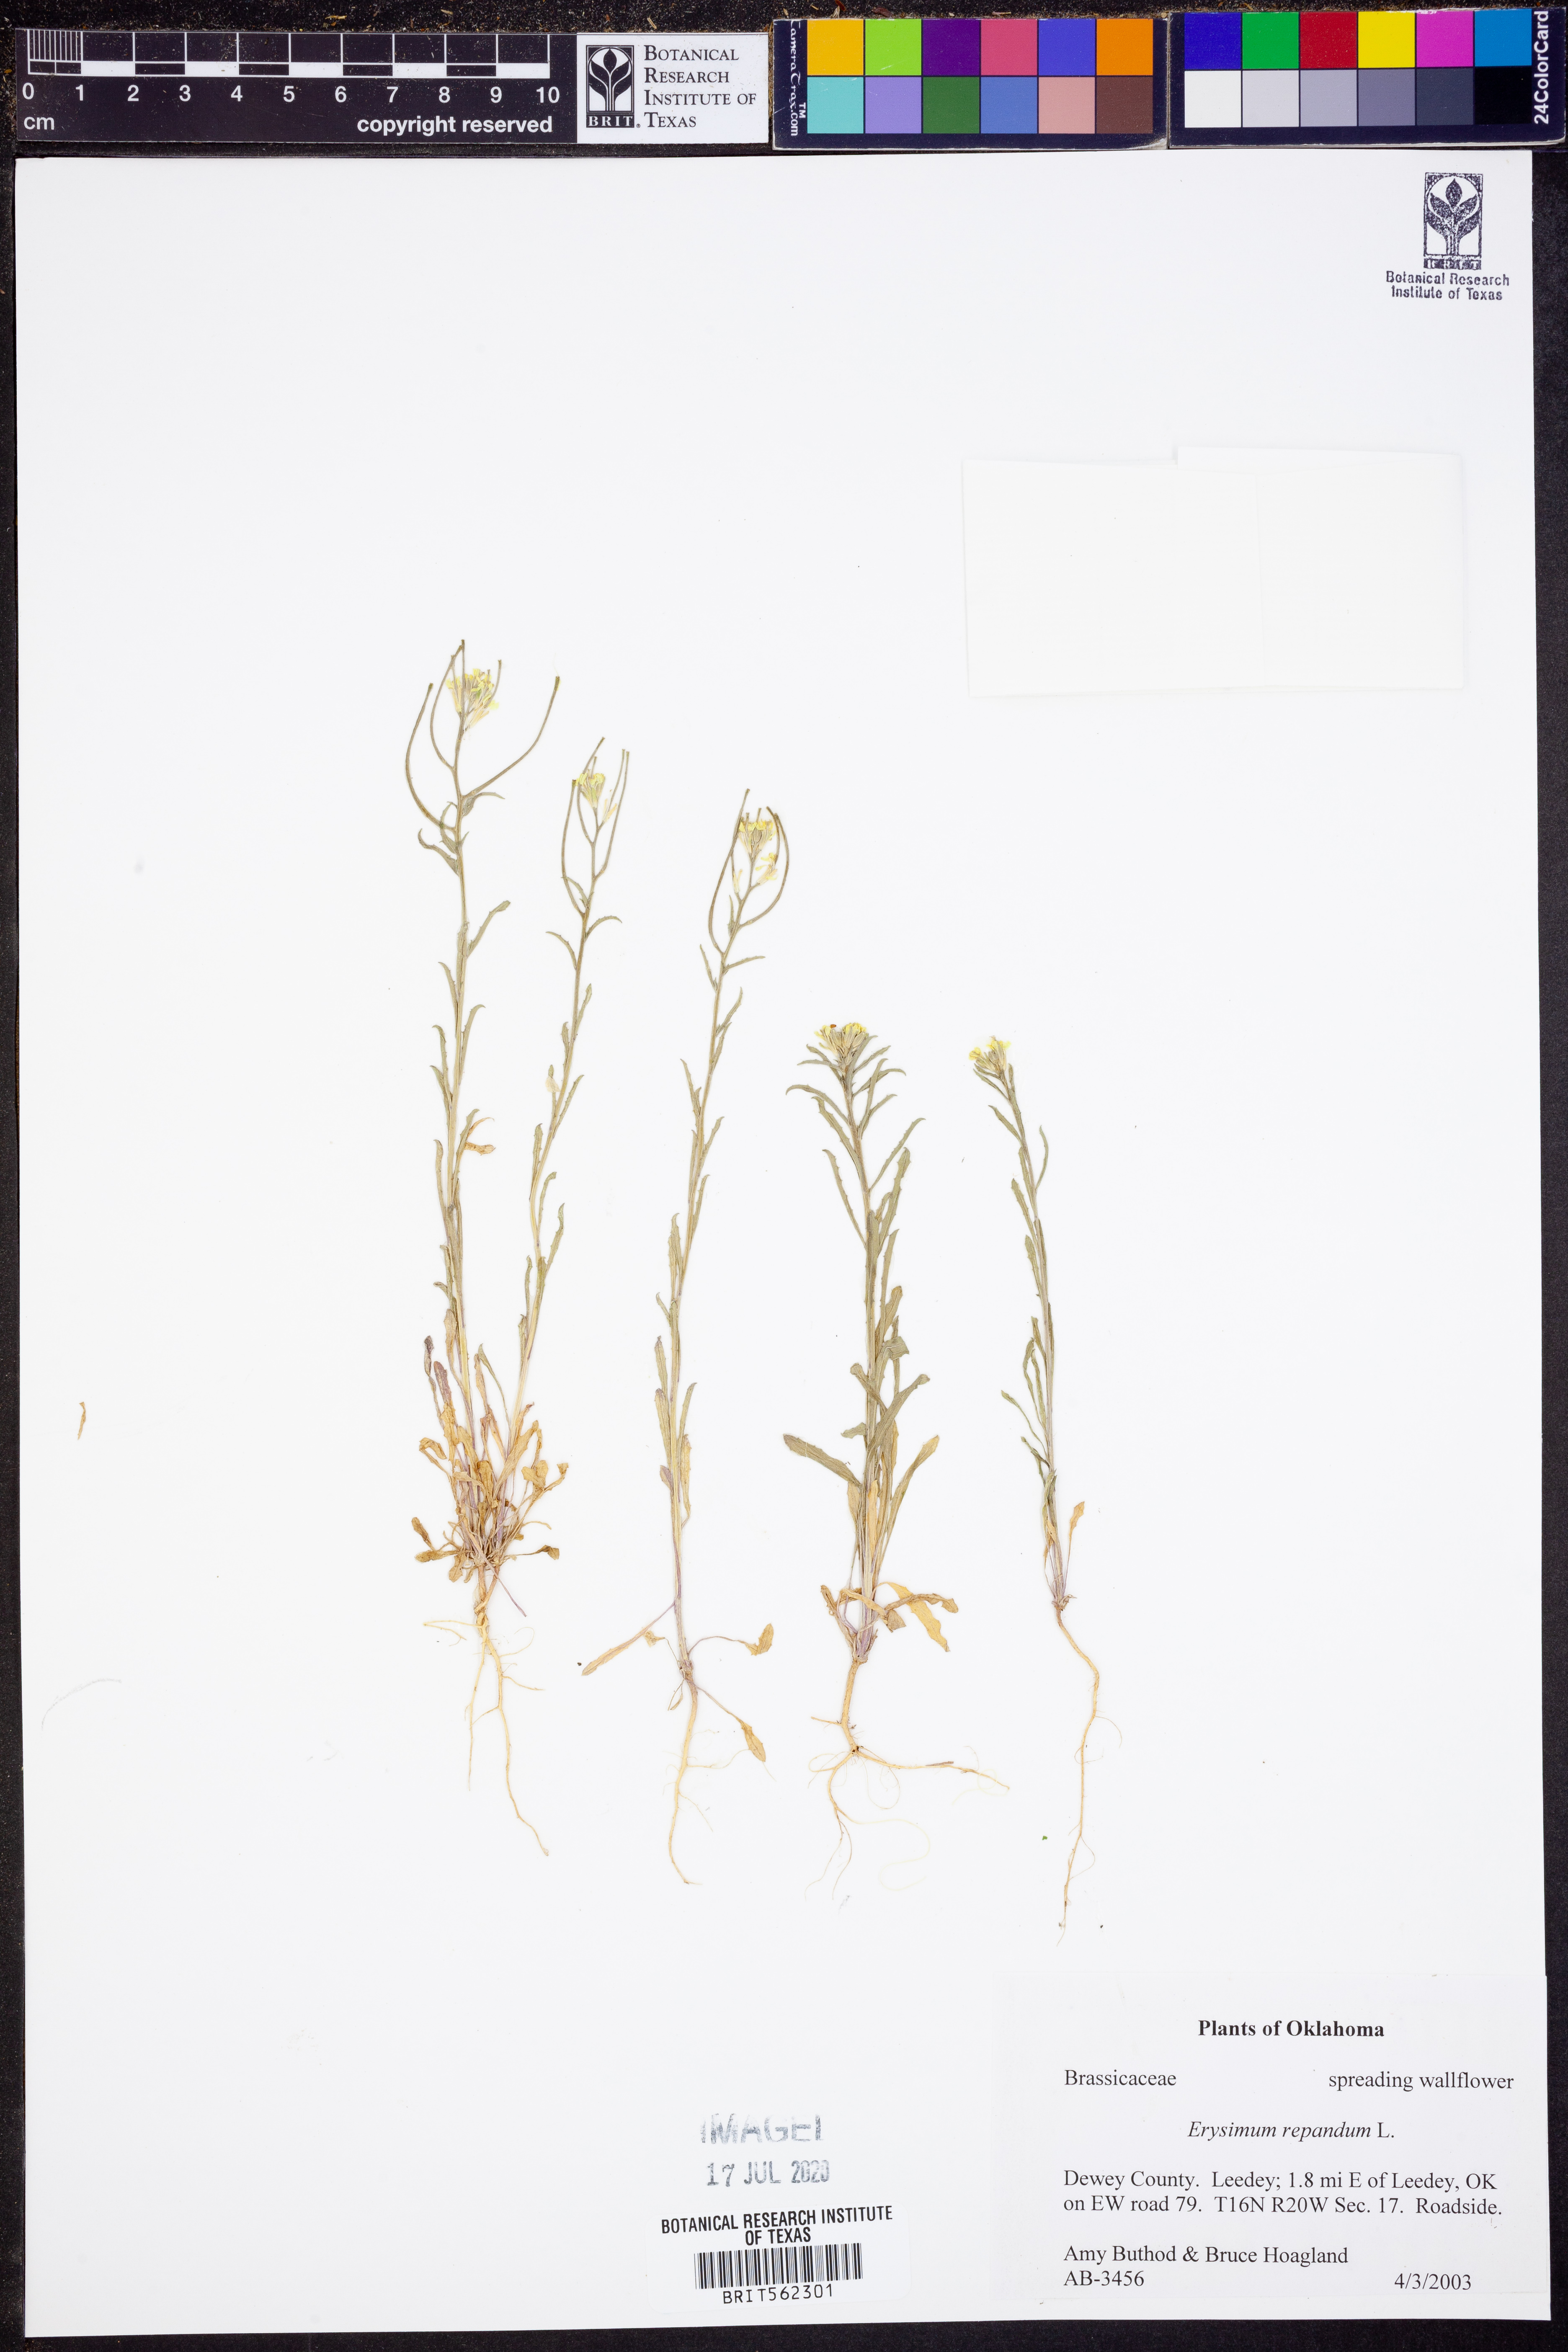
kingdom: Plantae
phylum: Tracheophyta
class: Magnoliopsida
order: Brassicales
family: Brassicaceae
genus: Erysimum
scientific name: Erysimum repandum
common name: Spreading wallflower
